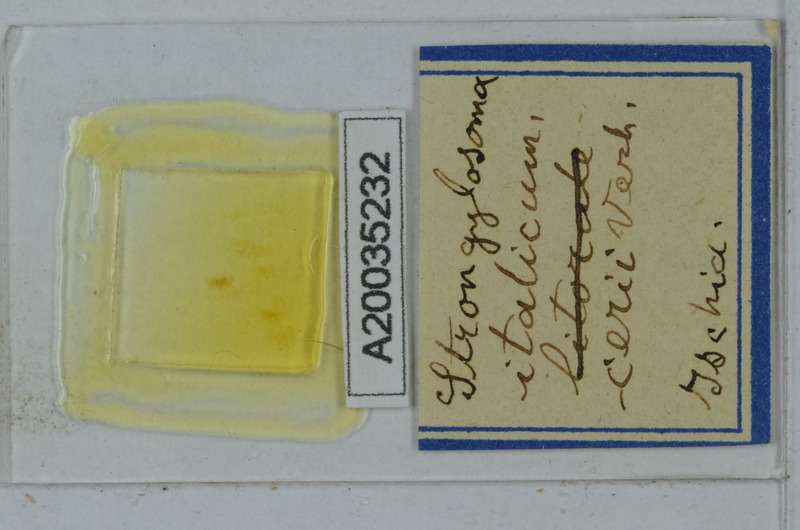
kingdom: Animalia
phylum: Arthropoda
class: Diplopoda
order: Polydesmida
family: Paradoxosomatidae
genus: Stosatea
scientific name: Stosatea italicum
